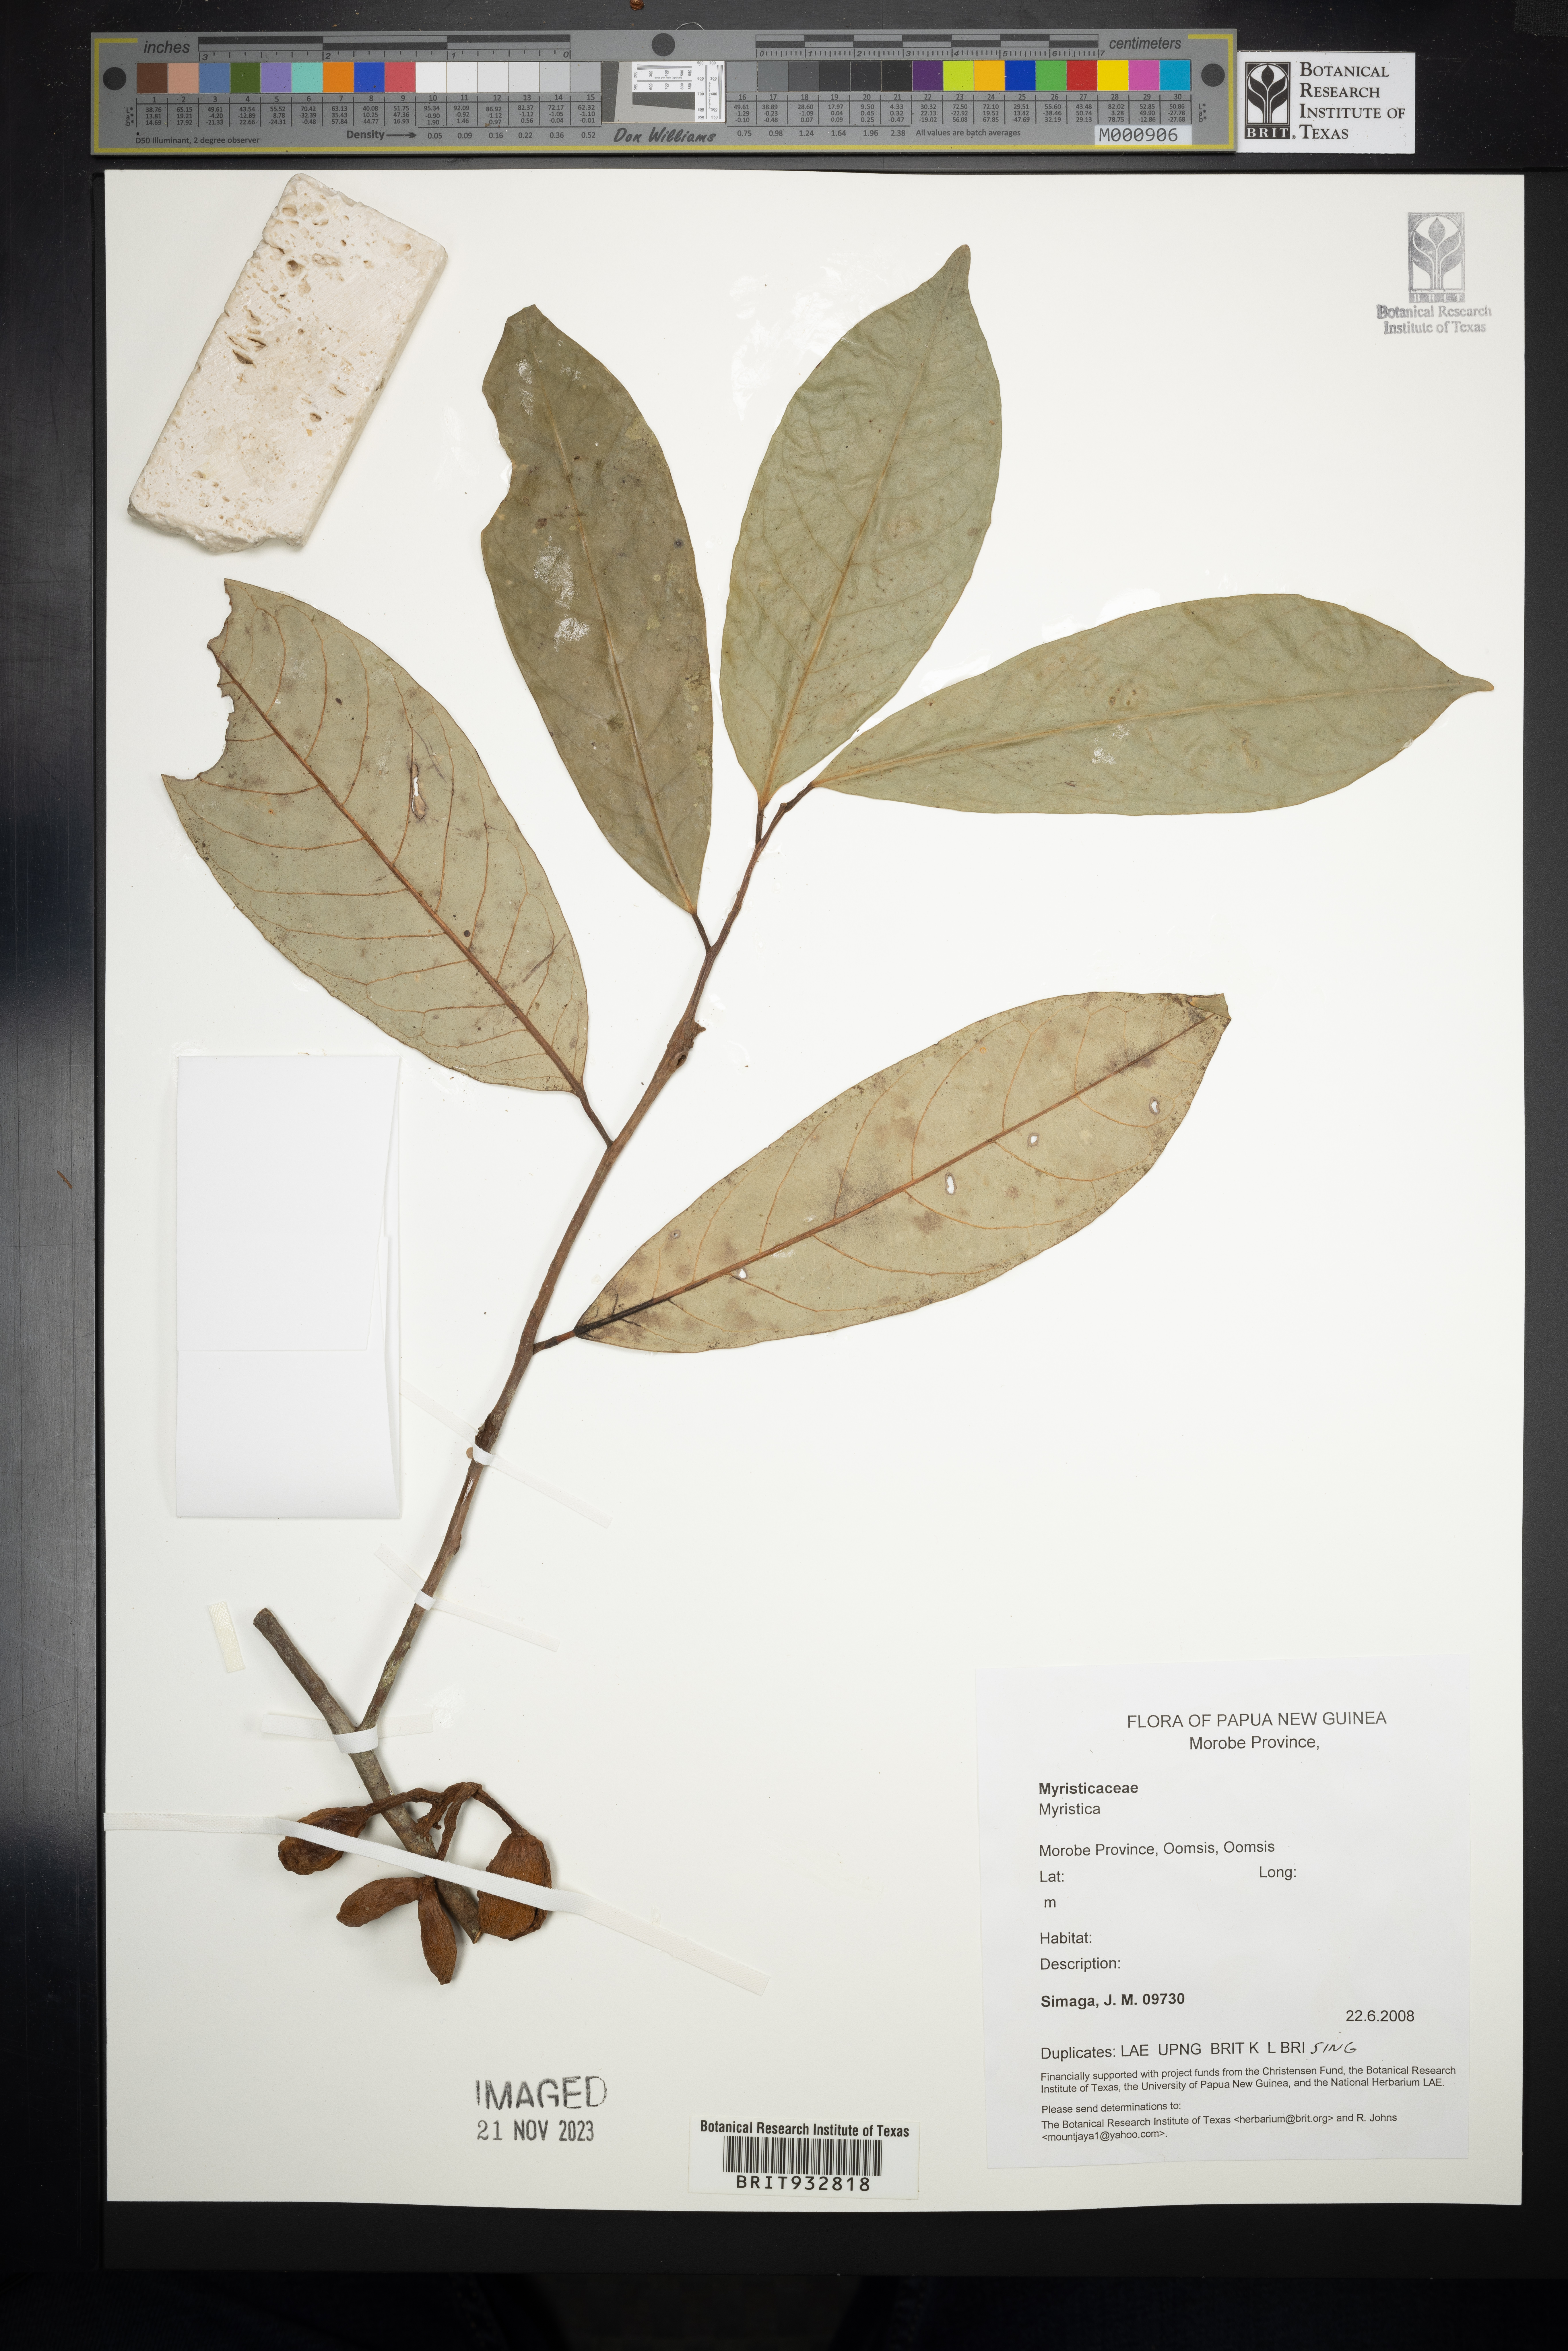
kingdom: Plantae
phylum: Tracheophyta
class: Magnoliopsida
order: Magnoliales
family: Myristicaceae
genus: Myristica
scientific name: Myristica
